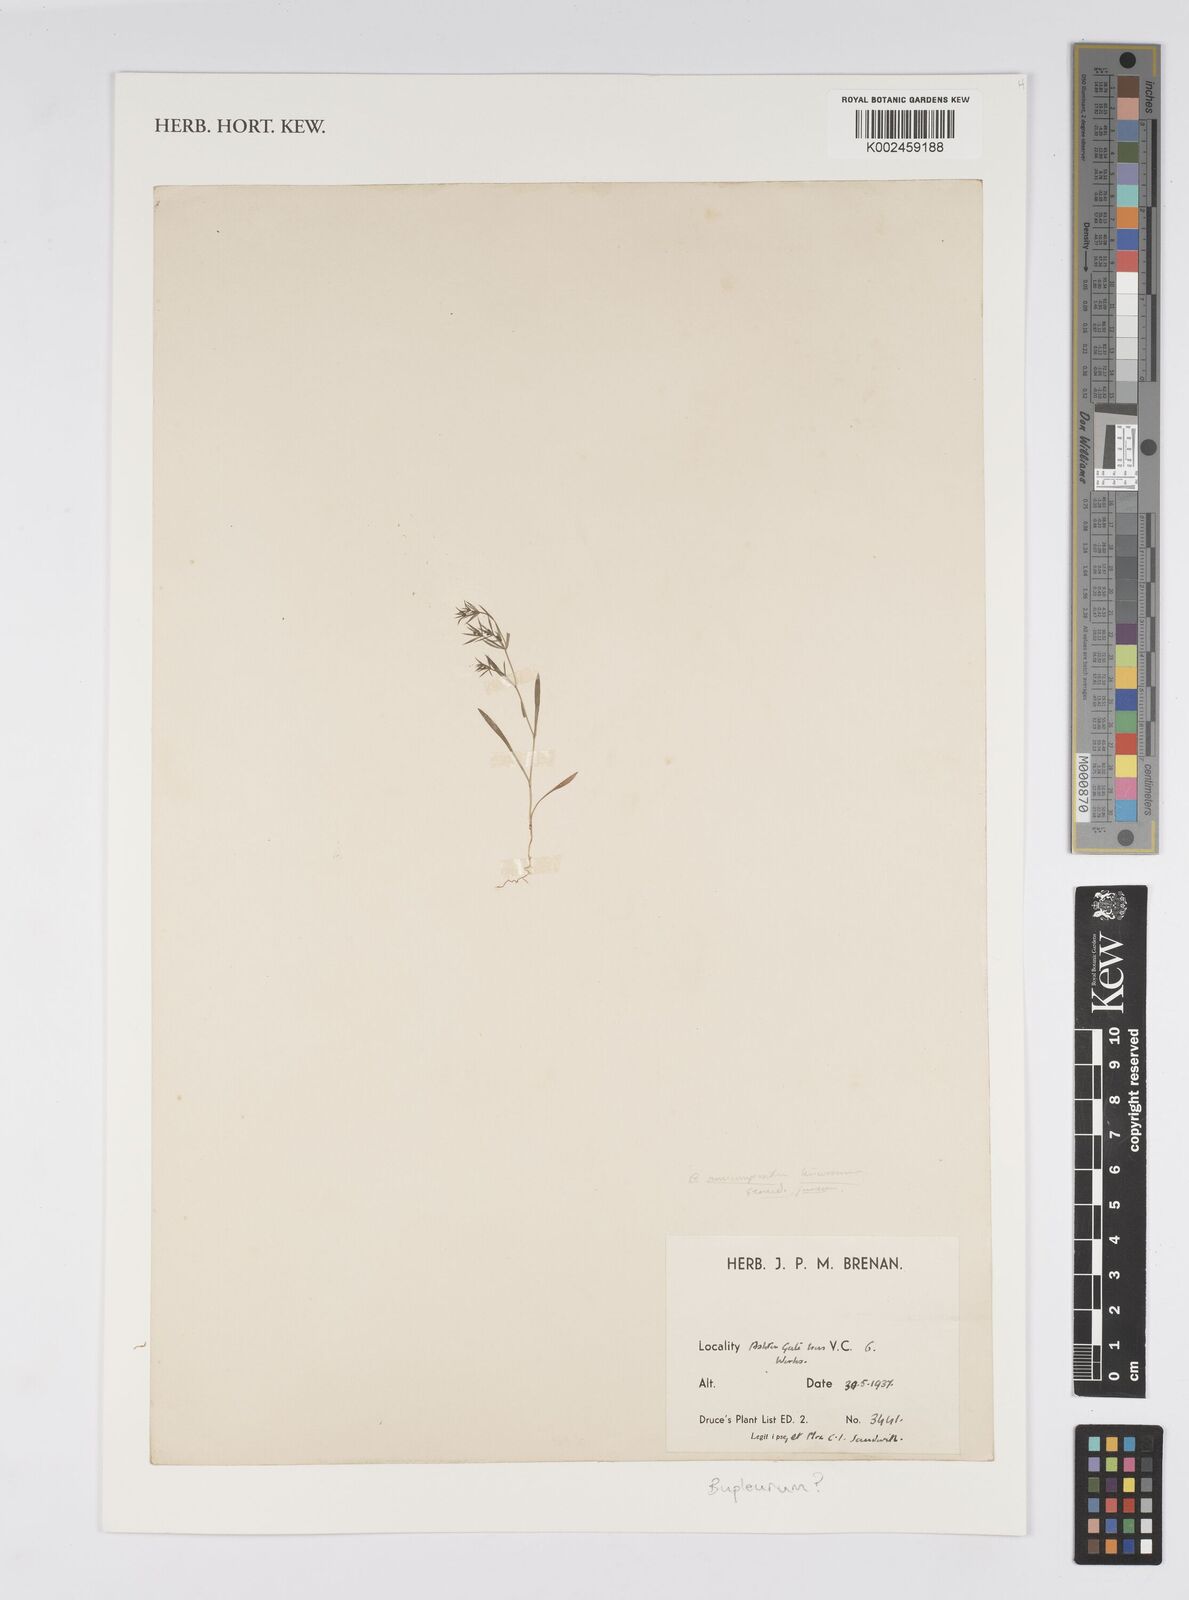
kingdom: Plantae
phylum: Tracheophyta
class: Magnoliopsida
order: Apiales
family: Apiaceae
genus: Bupleurum
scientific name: Bupleurum
